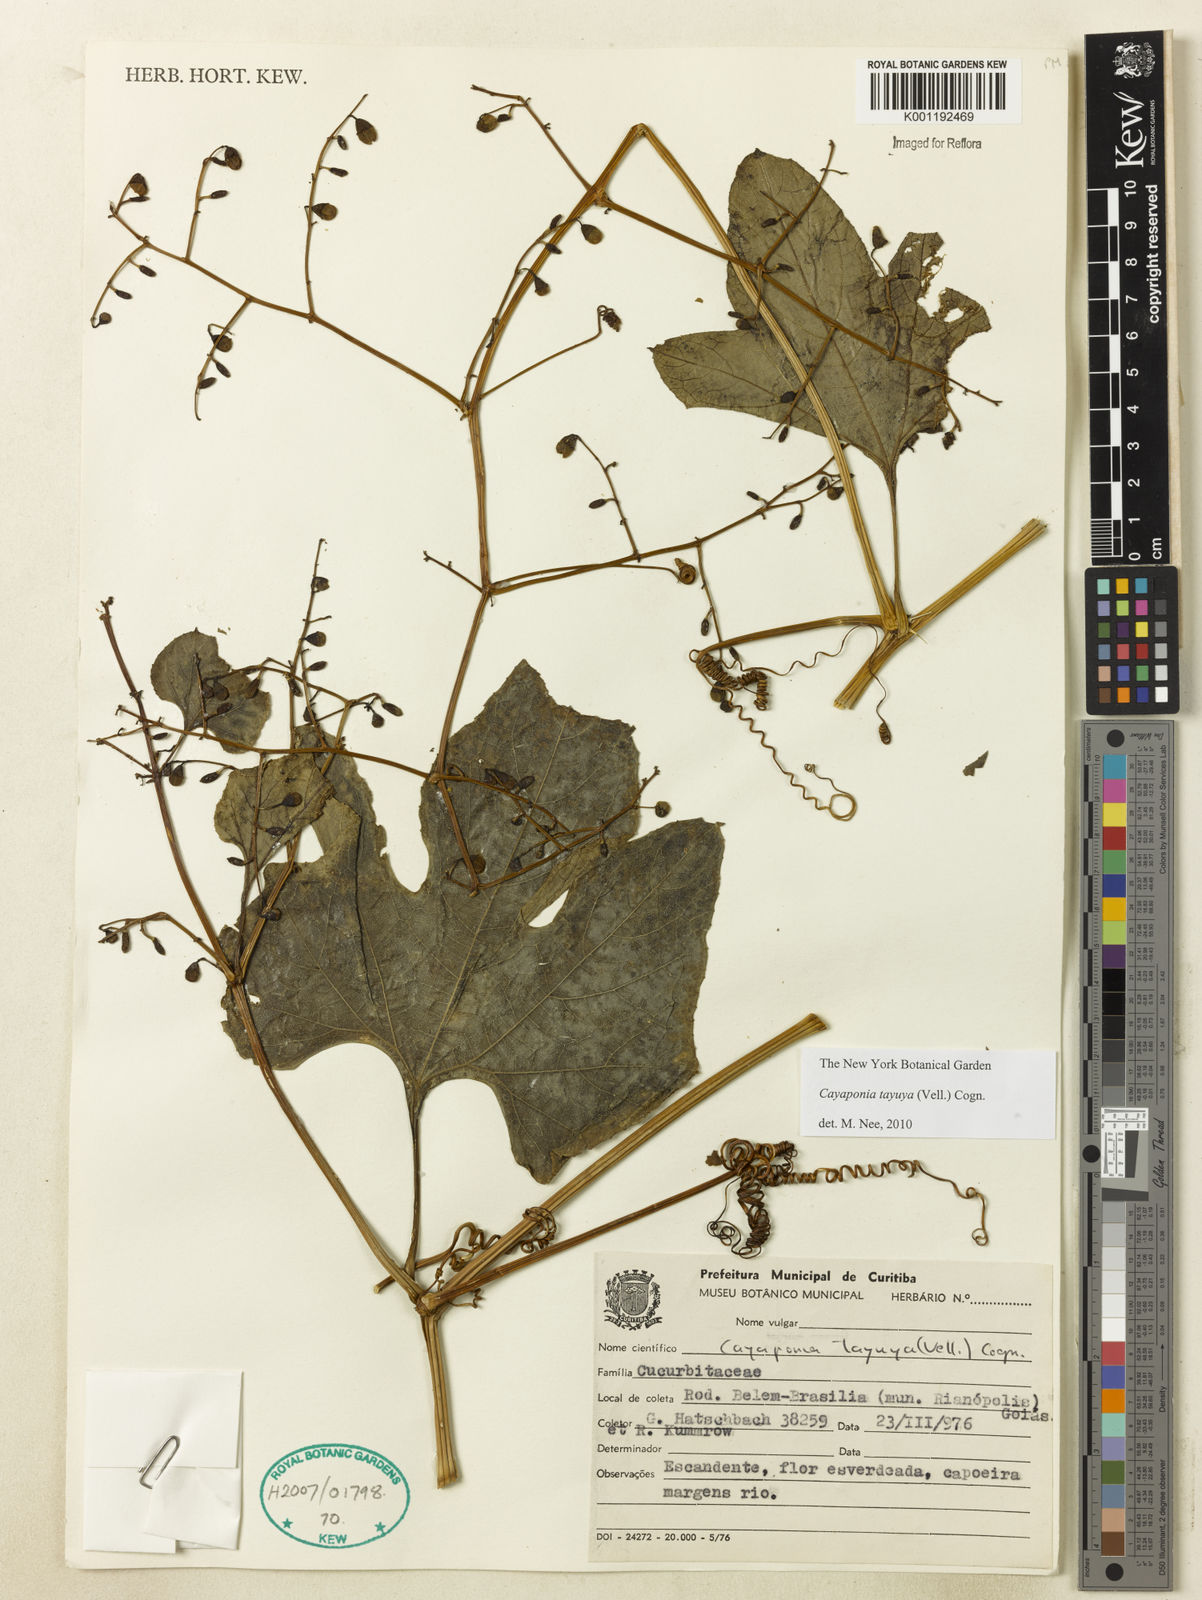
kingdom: Plantae
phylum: Tracheophyta
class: Magnoliopsida
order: Cucurbitales
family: Cucurbitaceae
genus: Cayaponia
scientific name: Cayaponia tayuya
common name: Tayuya
